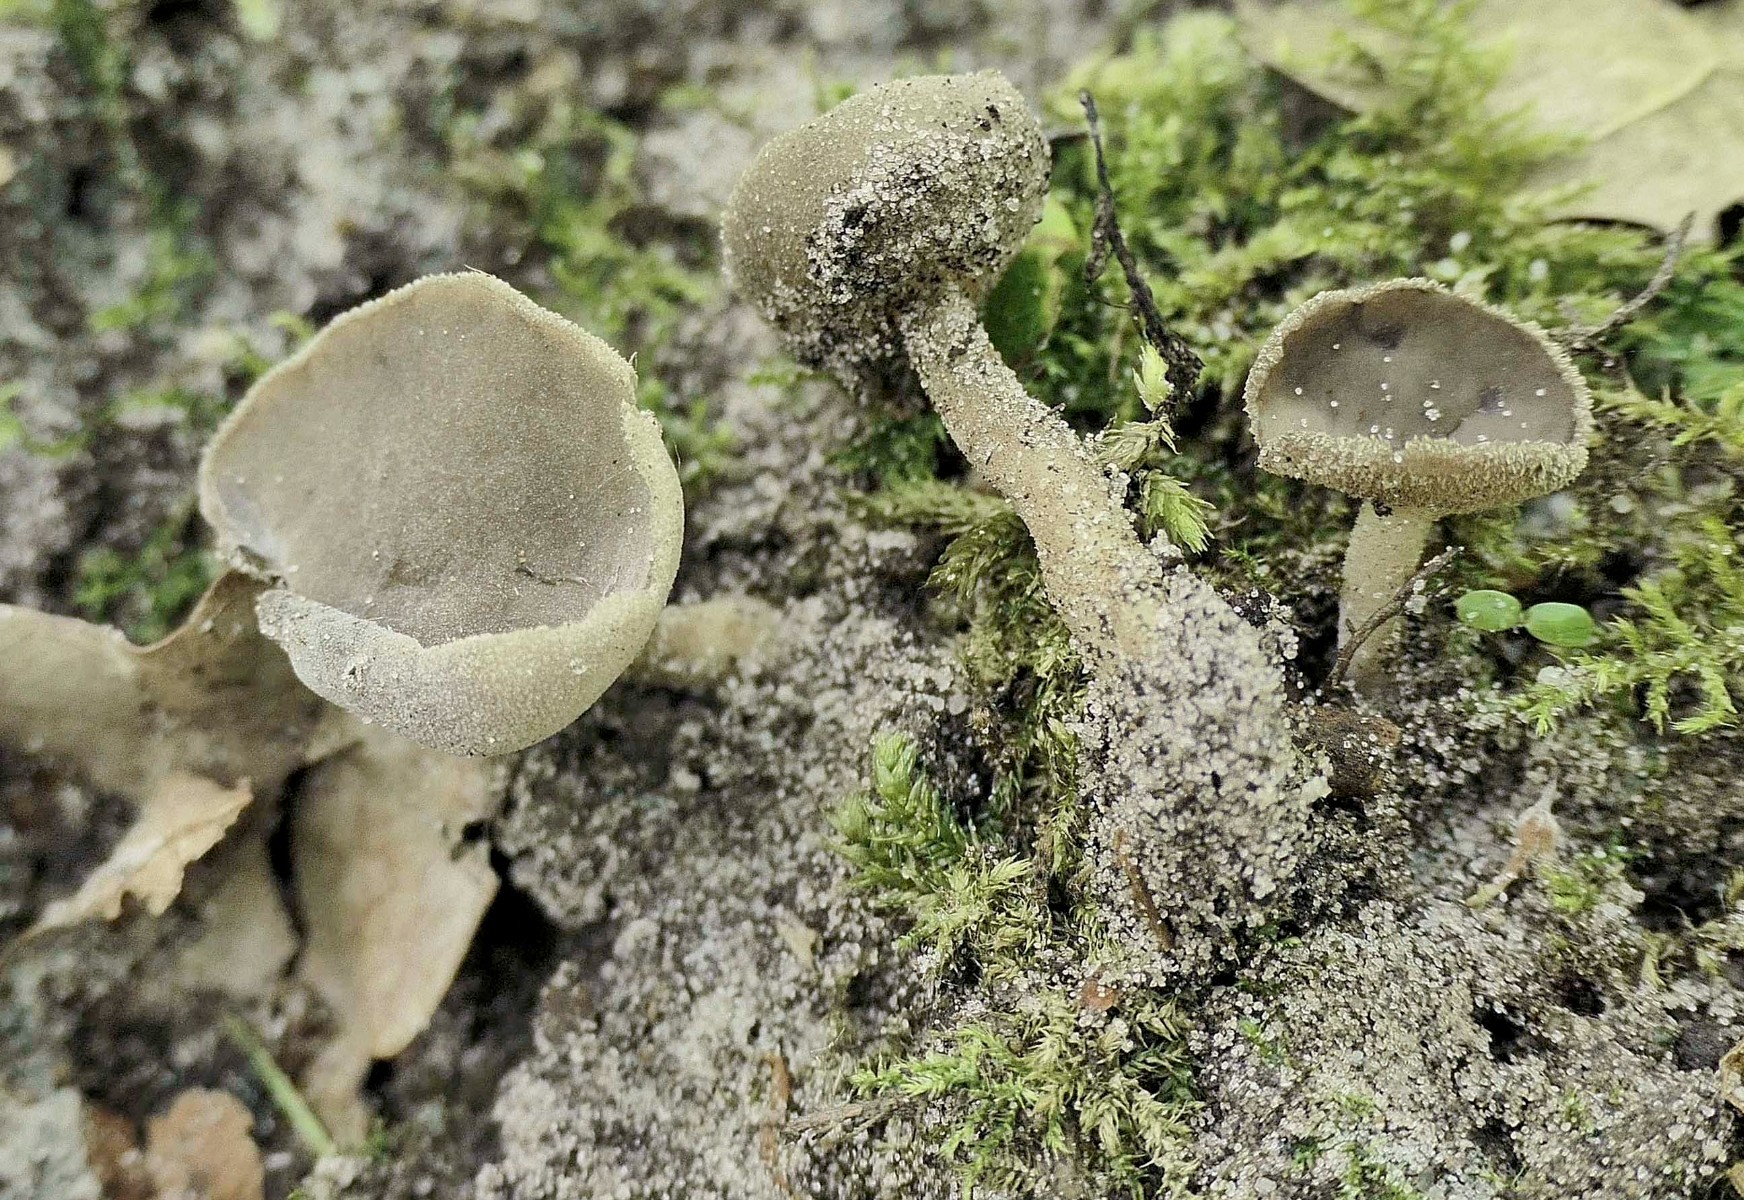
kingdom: Fungi
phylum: Ascomycota
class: Pezizomycetes
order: Pezizales
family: Helvellaceae
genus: Helvella
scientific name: Helvella fibrosa
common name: dunstokket foldhat
